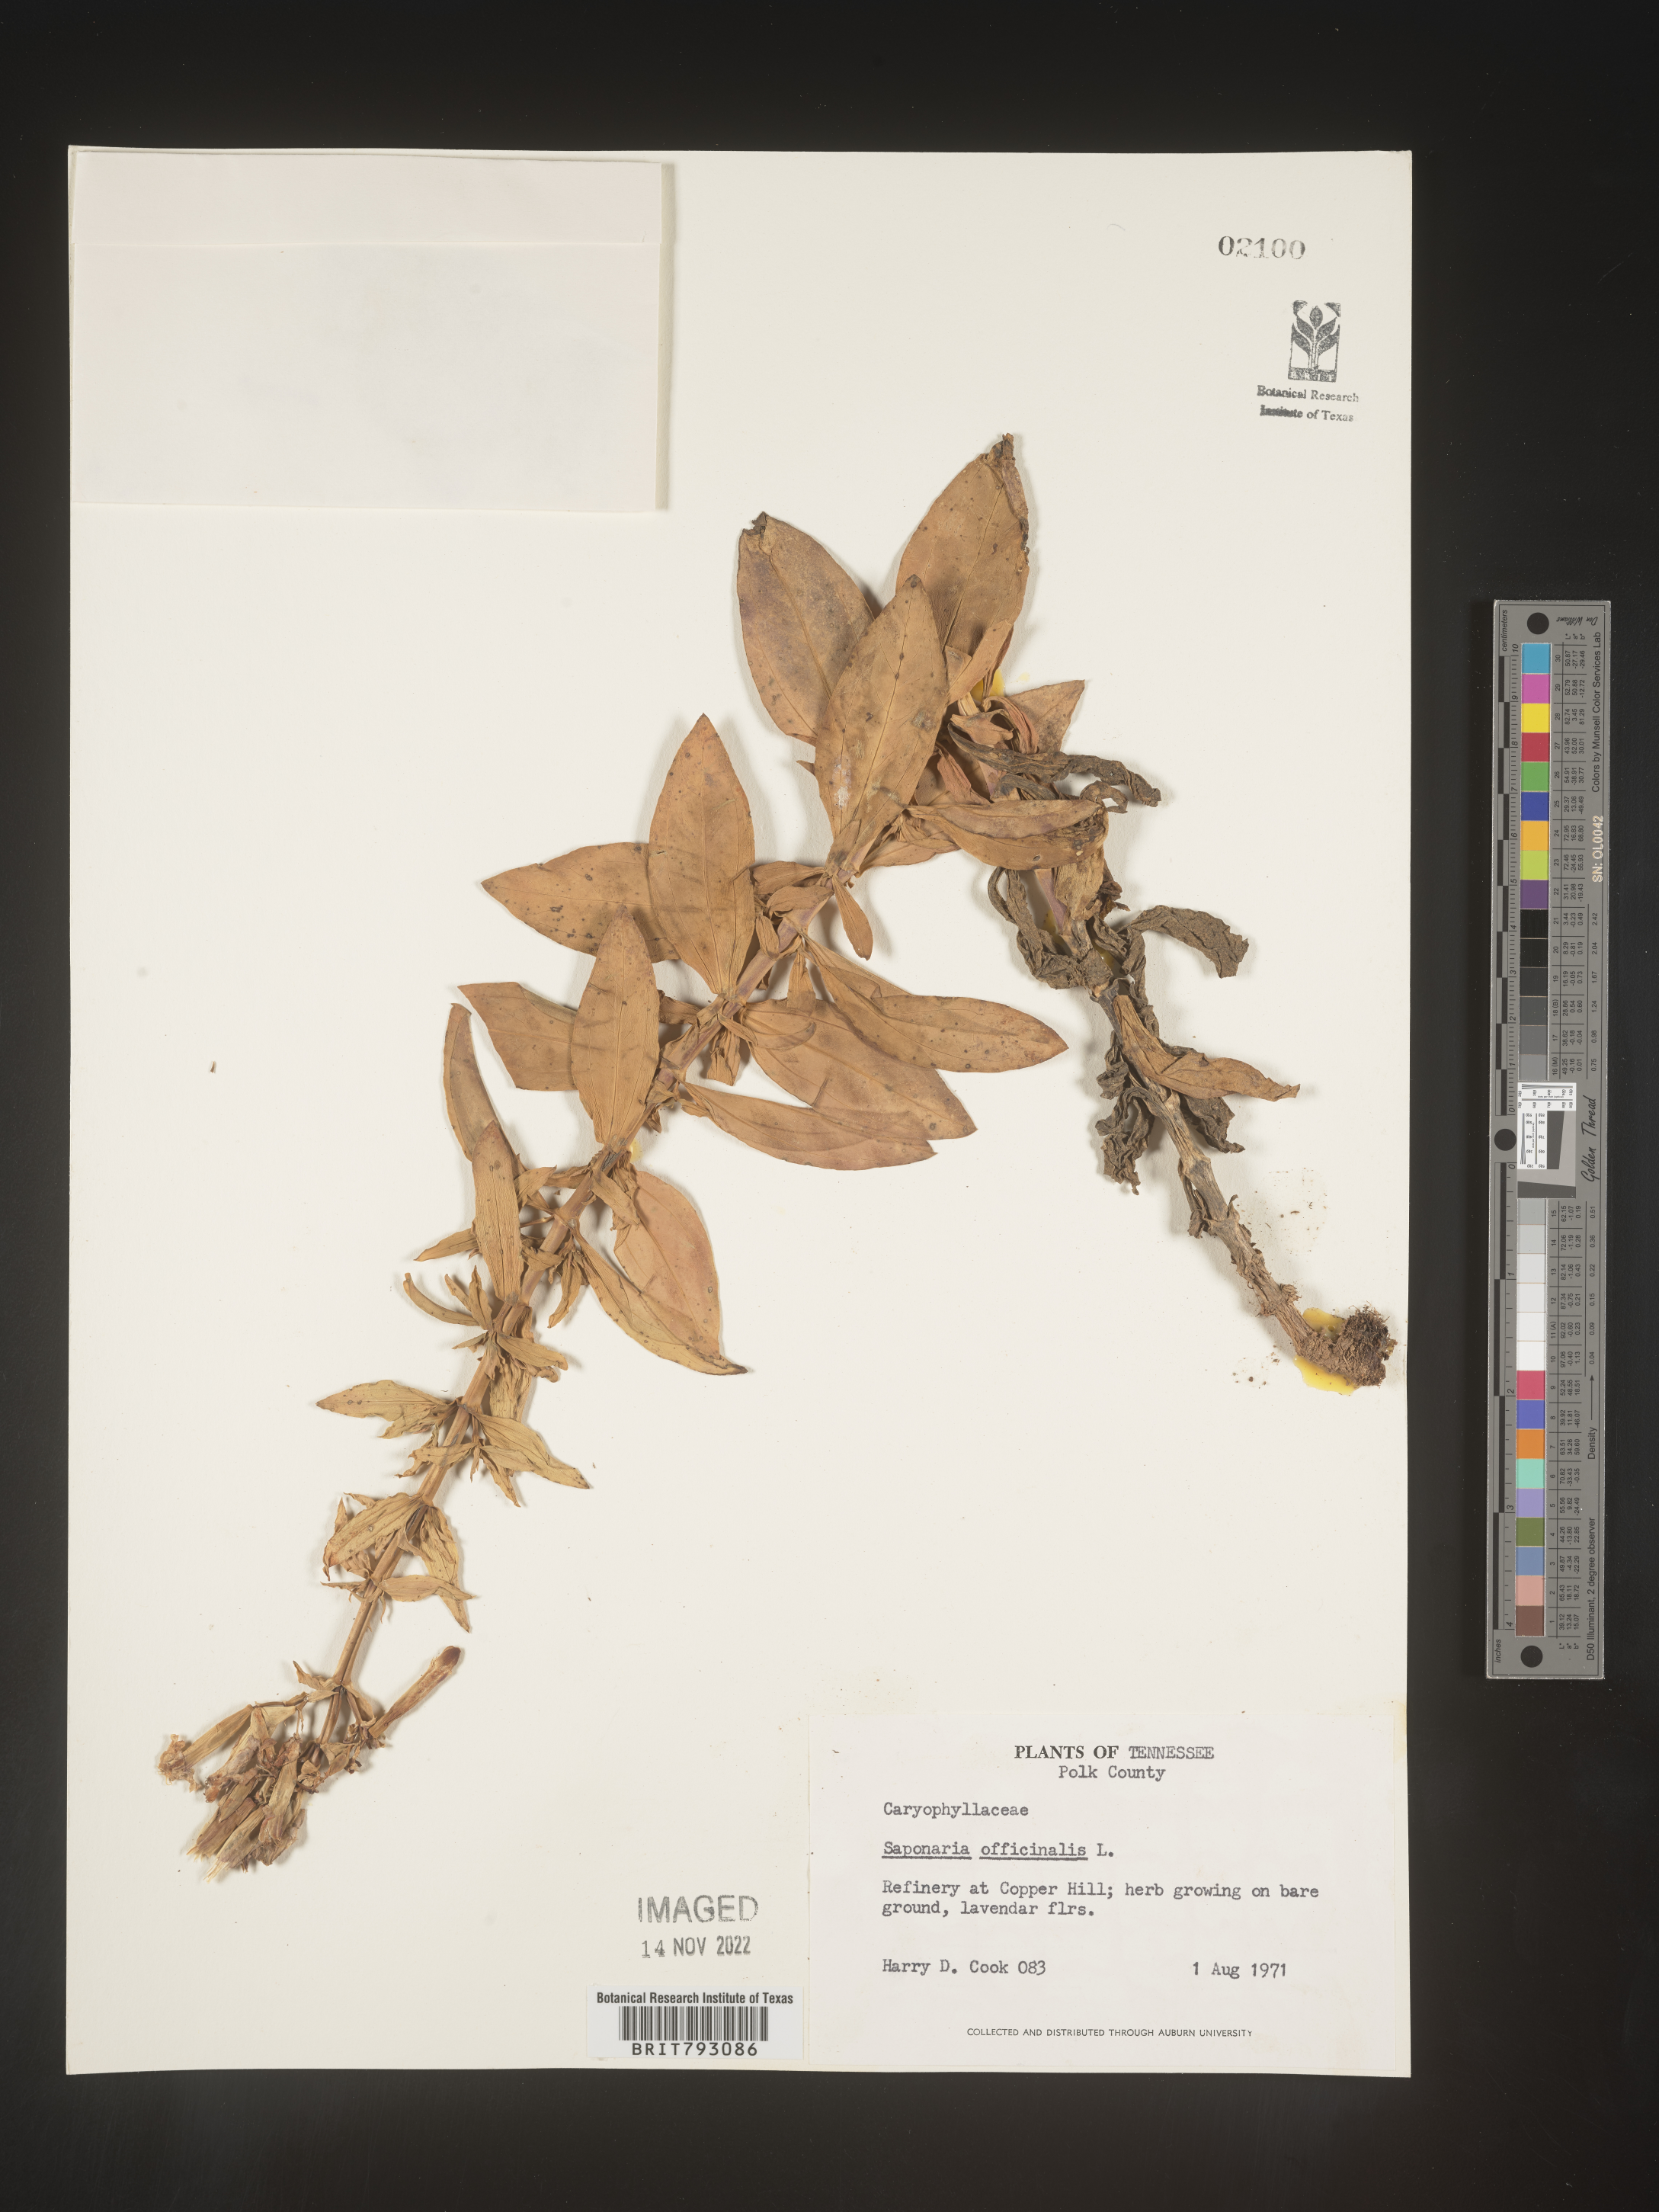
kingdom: Plantae
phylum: Tracheophyta
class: Magnoliopsida
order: Caryophyllales
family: Caryophyllaceae
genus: Saponaria
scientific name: Saponaria officinalis
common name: Soapwort
